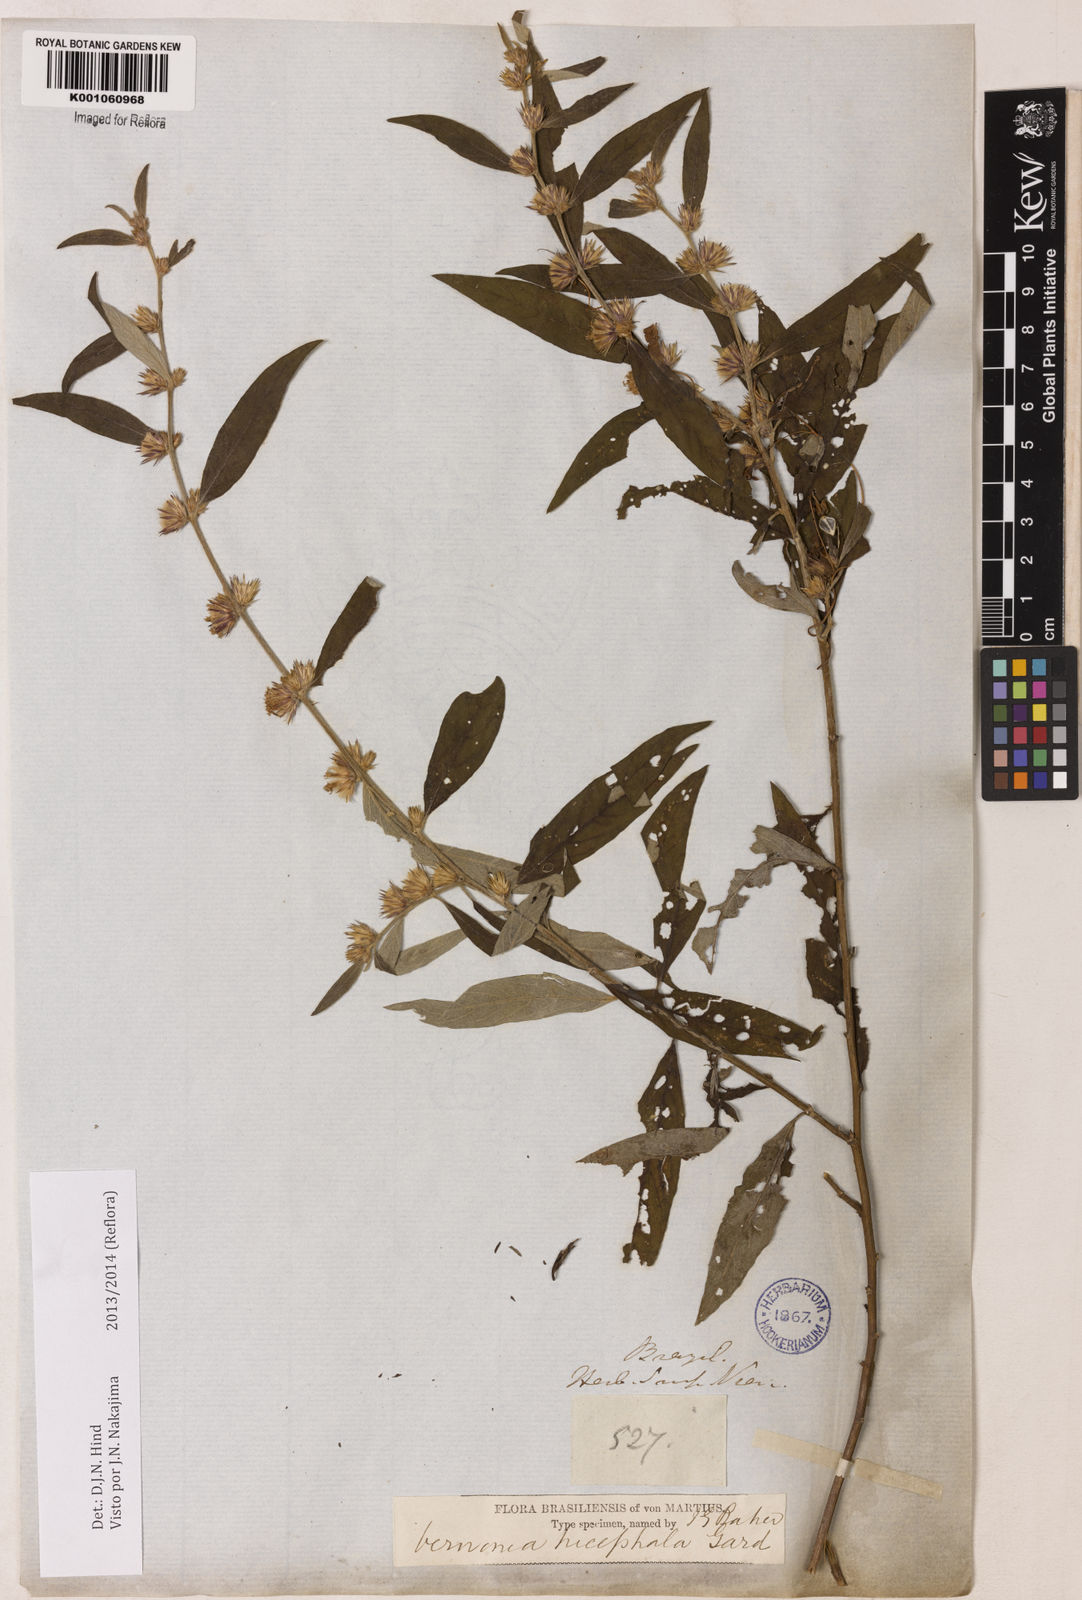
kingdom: Plantae
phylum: Tracheophyta
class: Magnoliopsida
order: Asterales
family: Asteraceae
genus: Lepidaploa
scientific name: Lepidaploa rufogrisea
